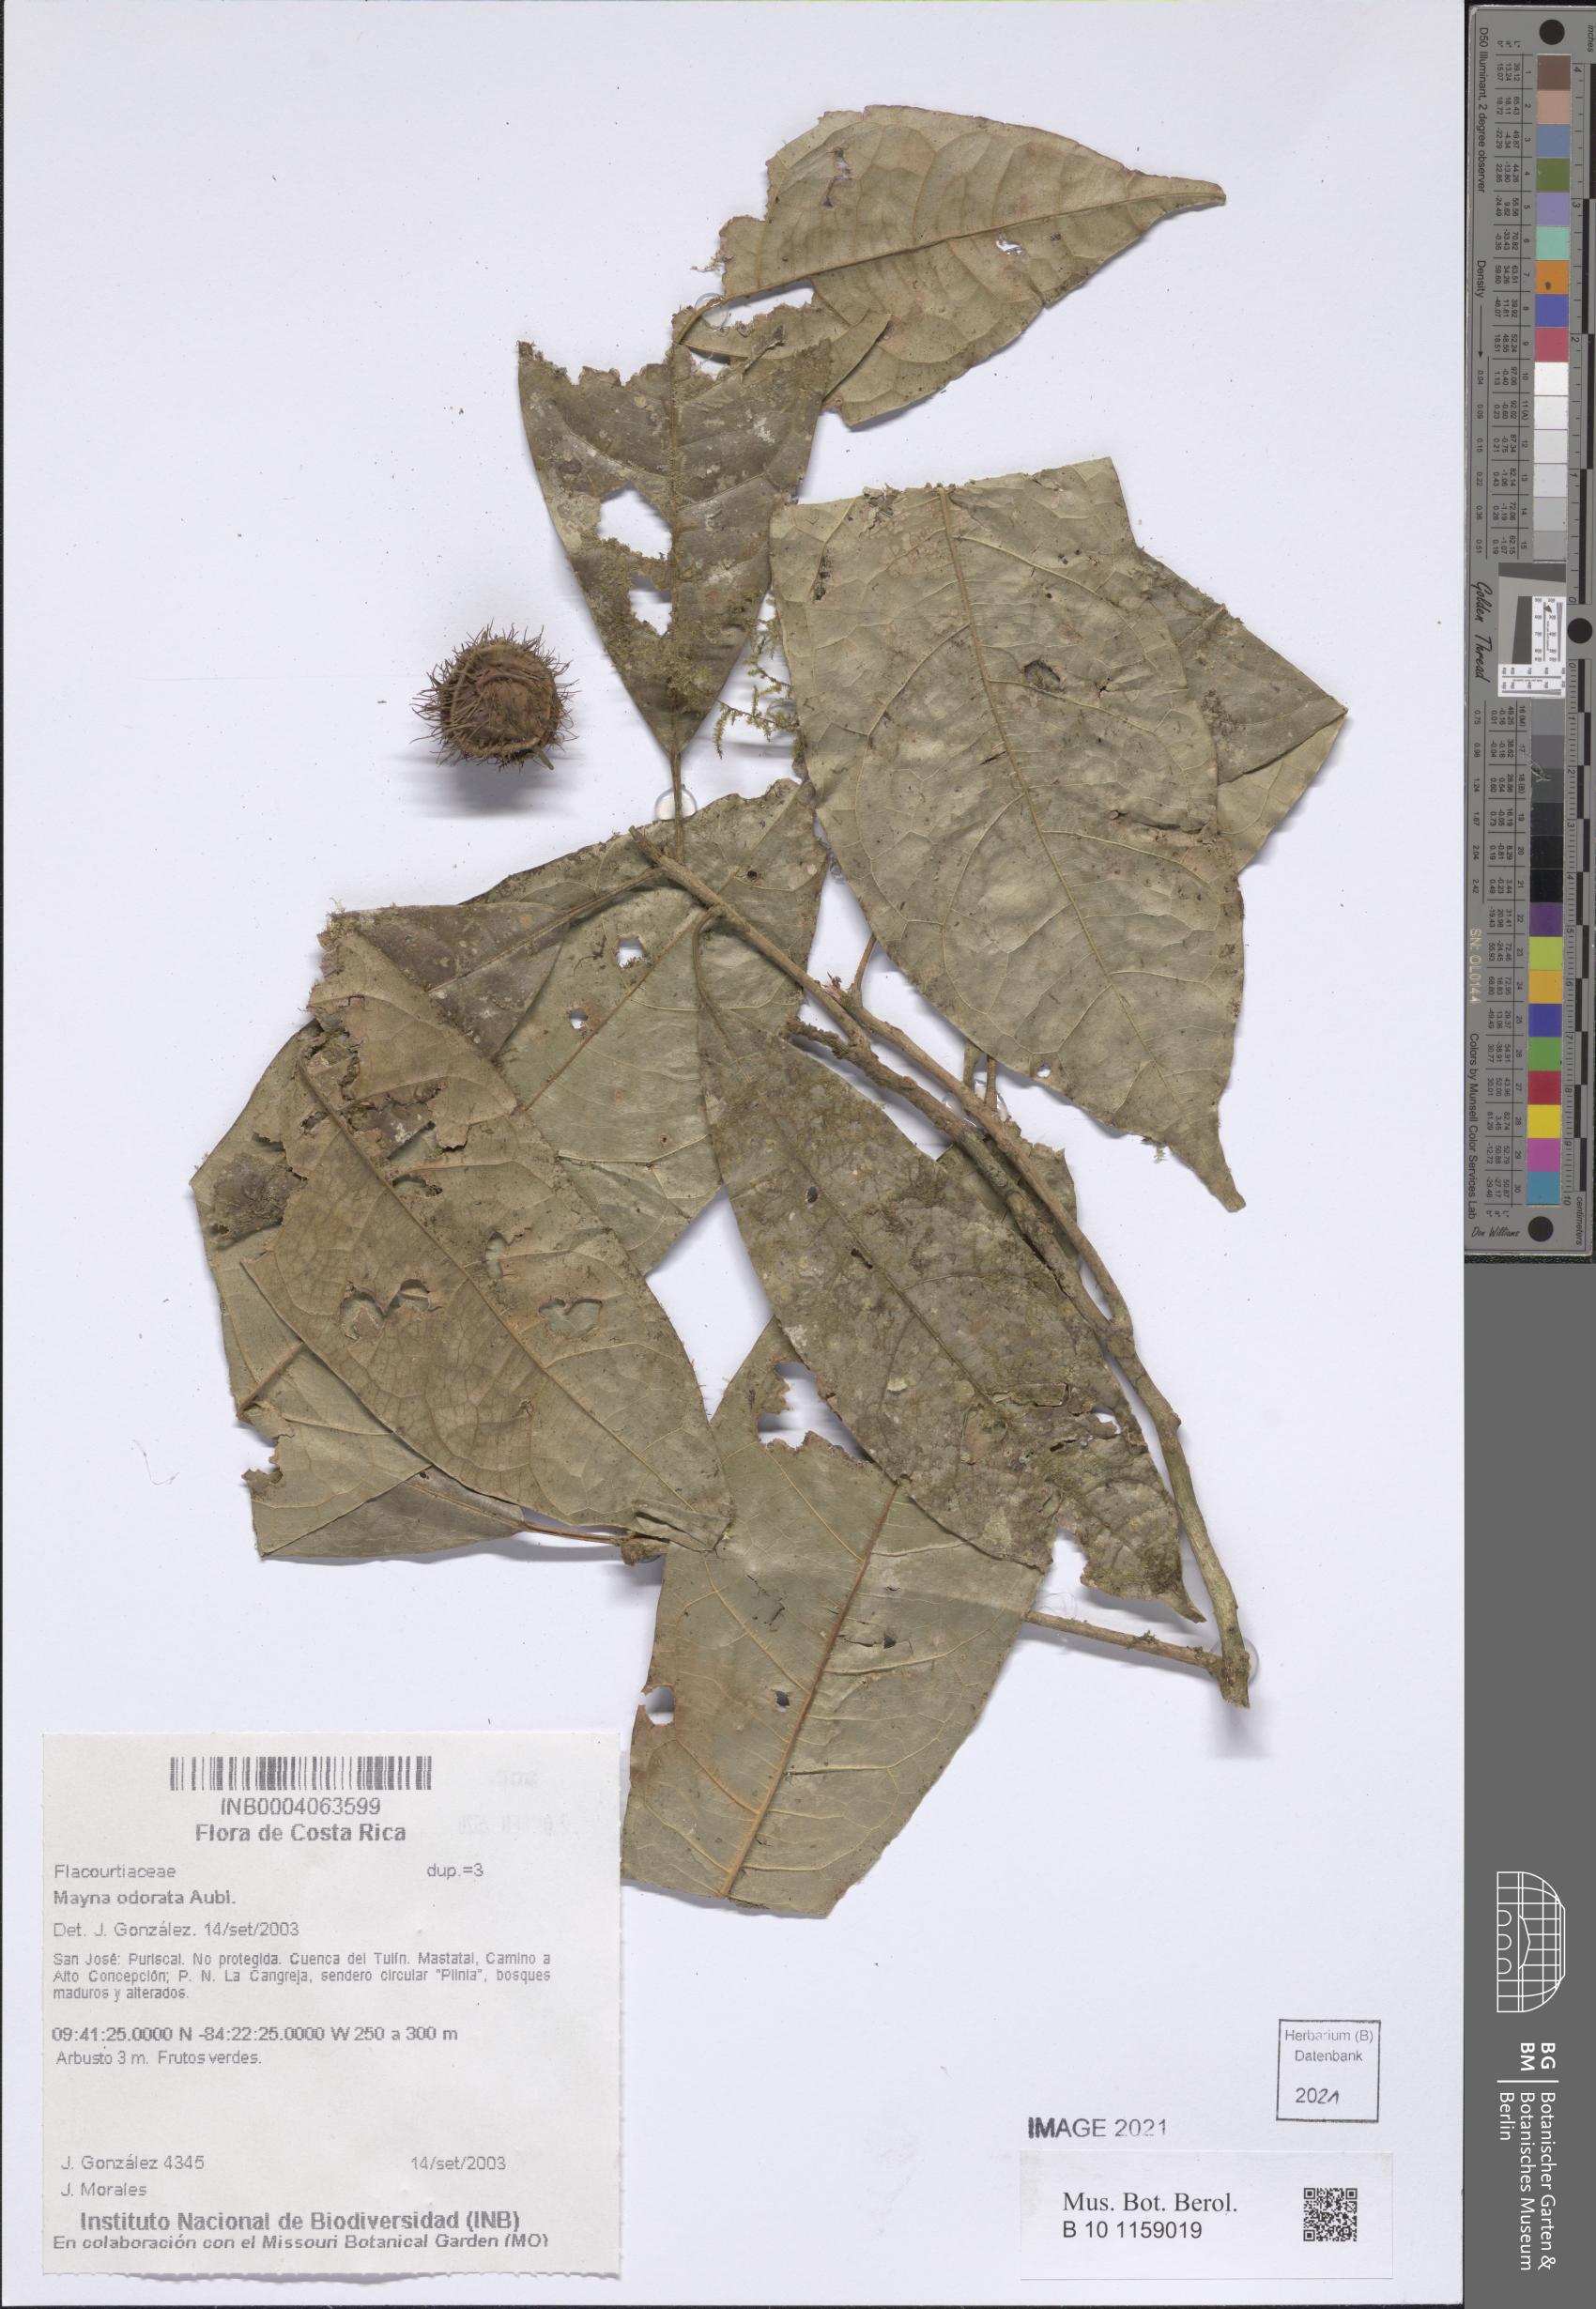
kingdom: Plantae
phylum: Tracheophyta
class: Magnoliopsida
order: Malpighiales
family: Achariaceae
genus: Mayna
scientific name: Mayna odorata
